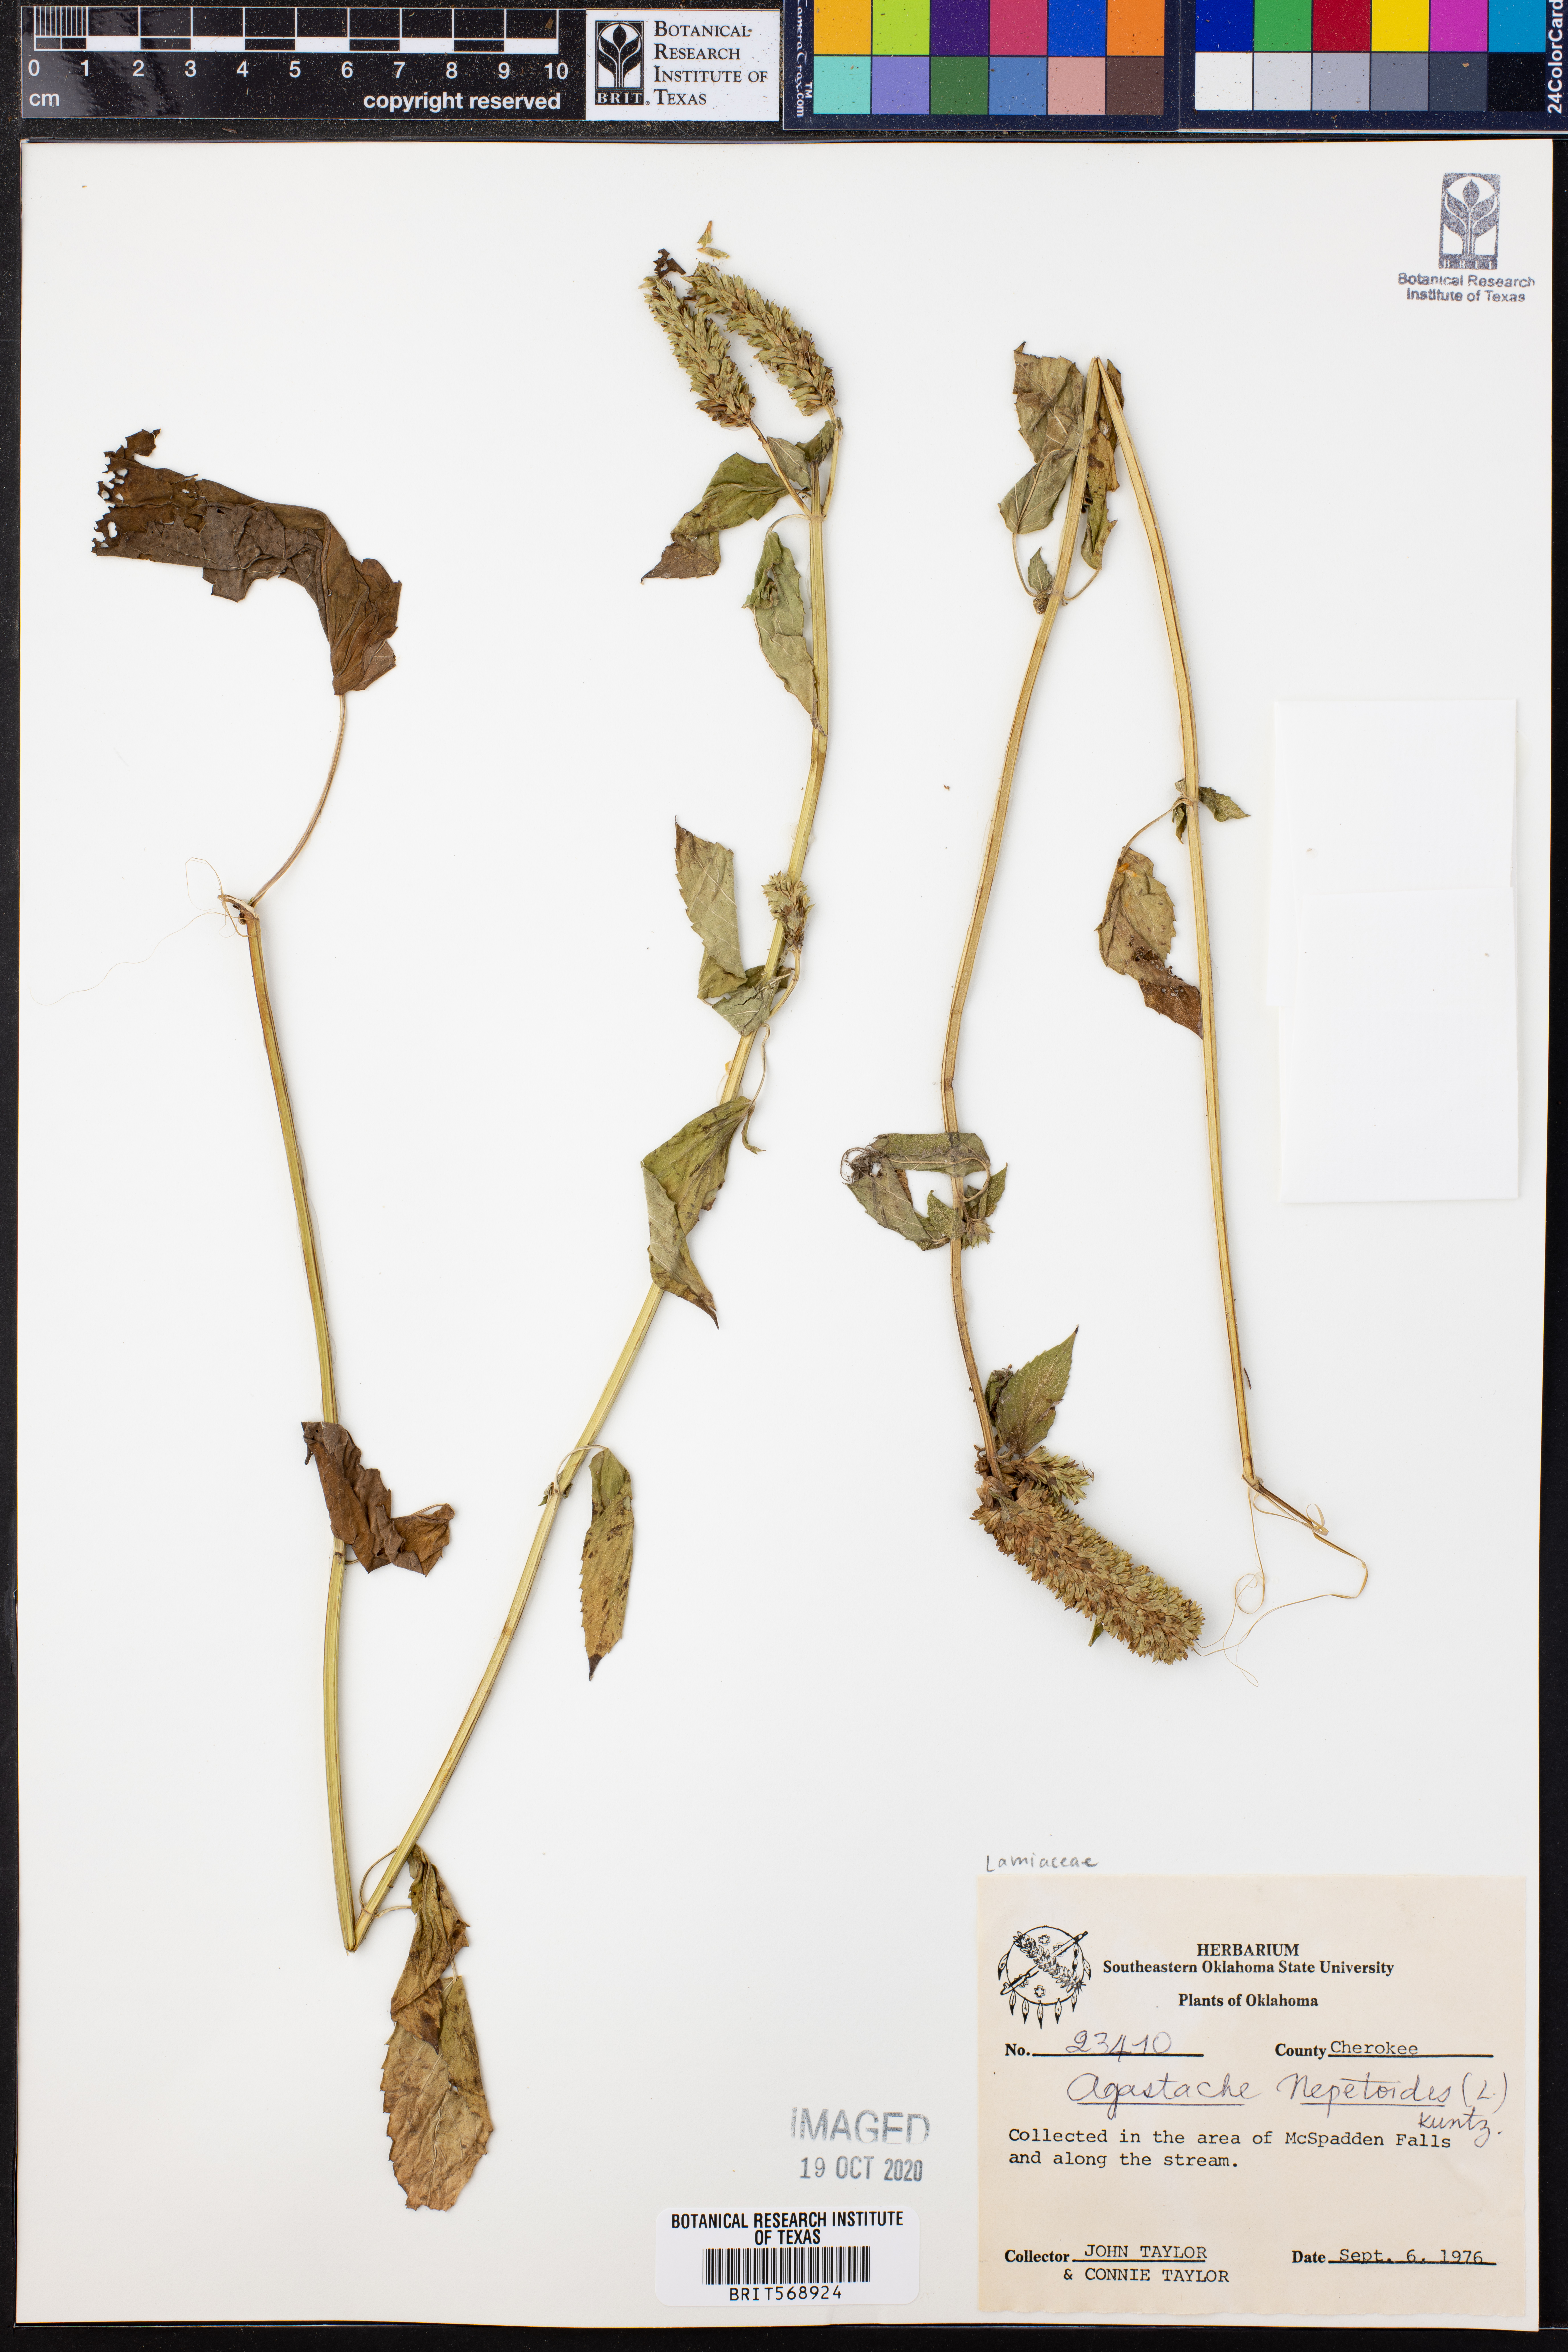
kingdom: Plantae
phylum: Tracheophyta
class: Magnoliopsida
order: Lamiales
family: Lamiaceae
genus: Agastache
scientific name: Agastache nepetoides
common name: Catnip giant hyssop
